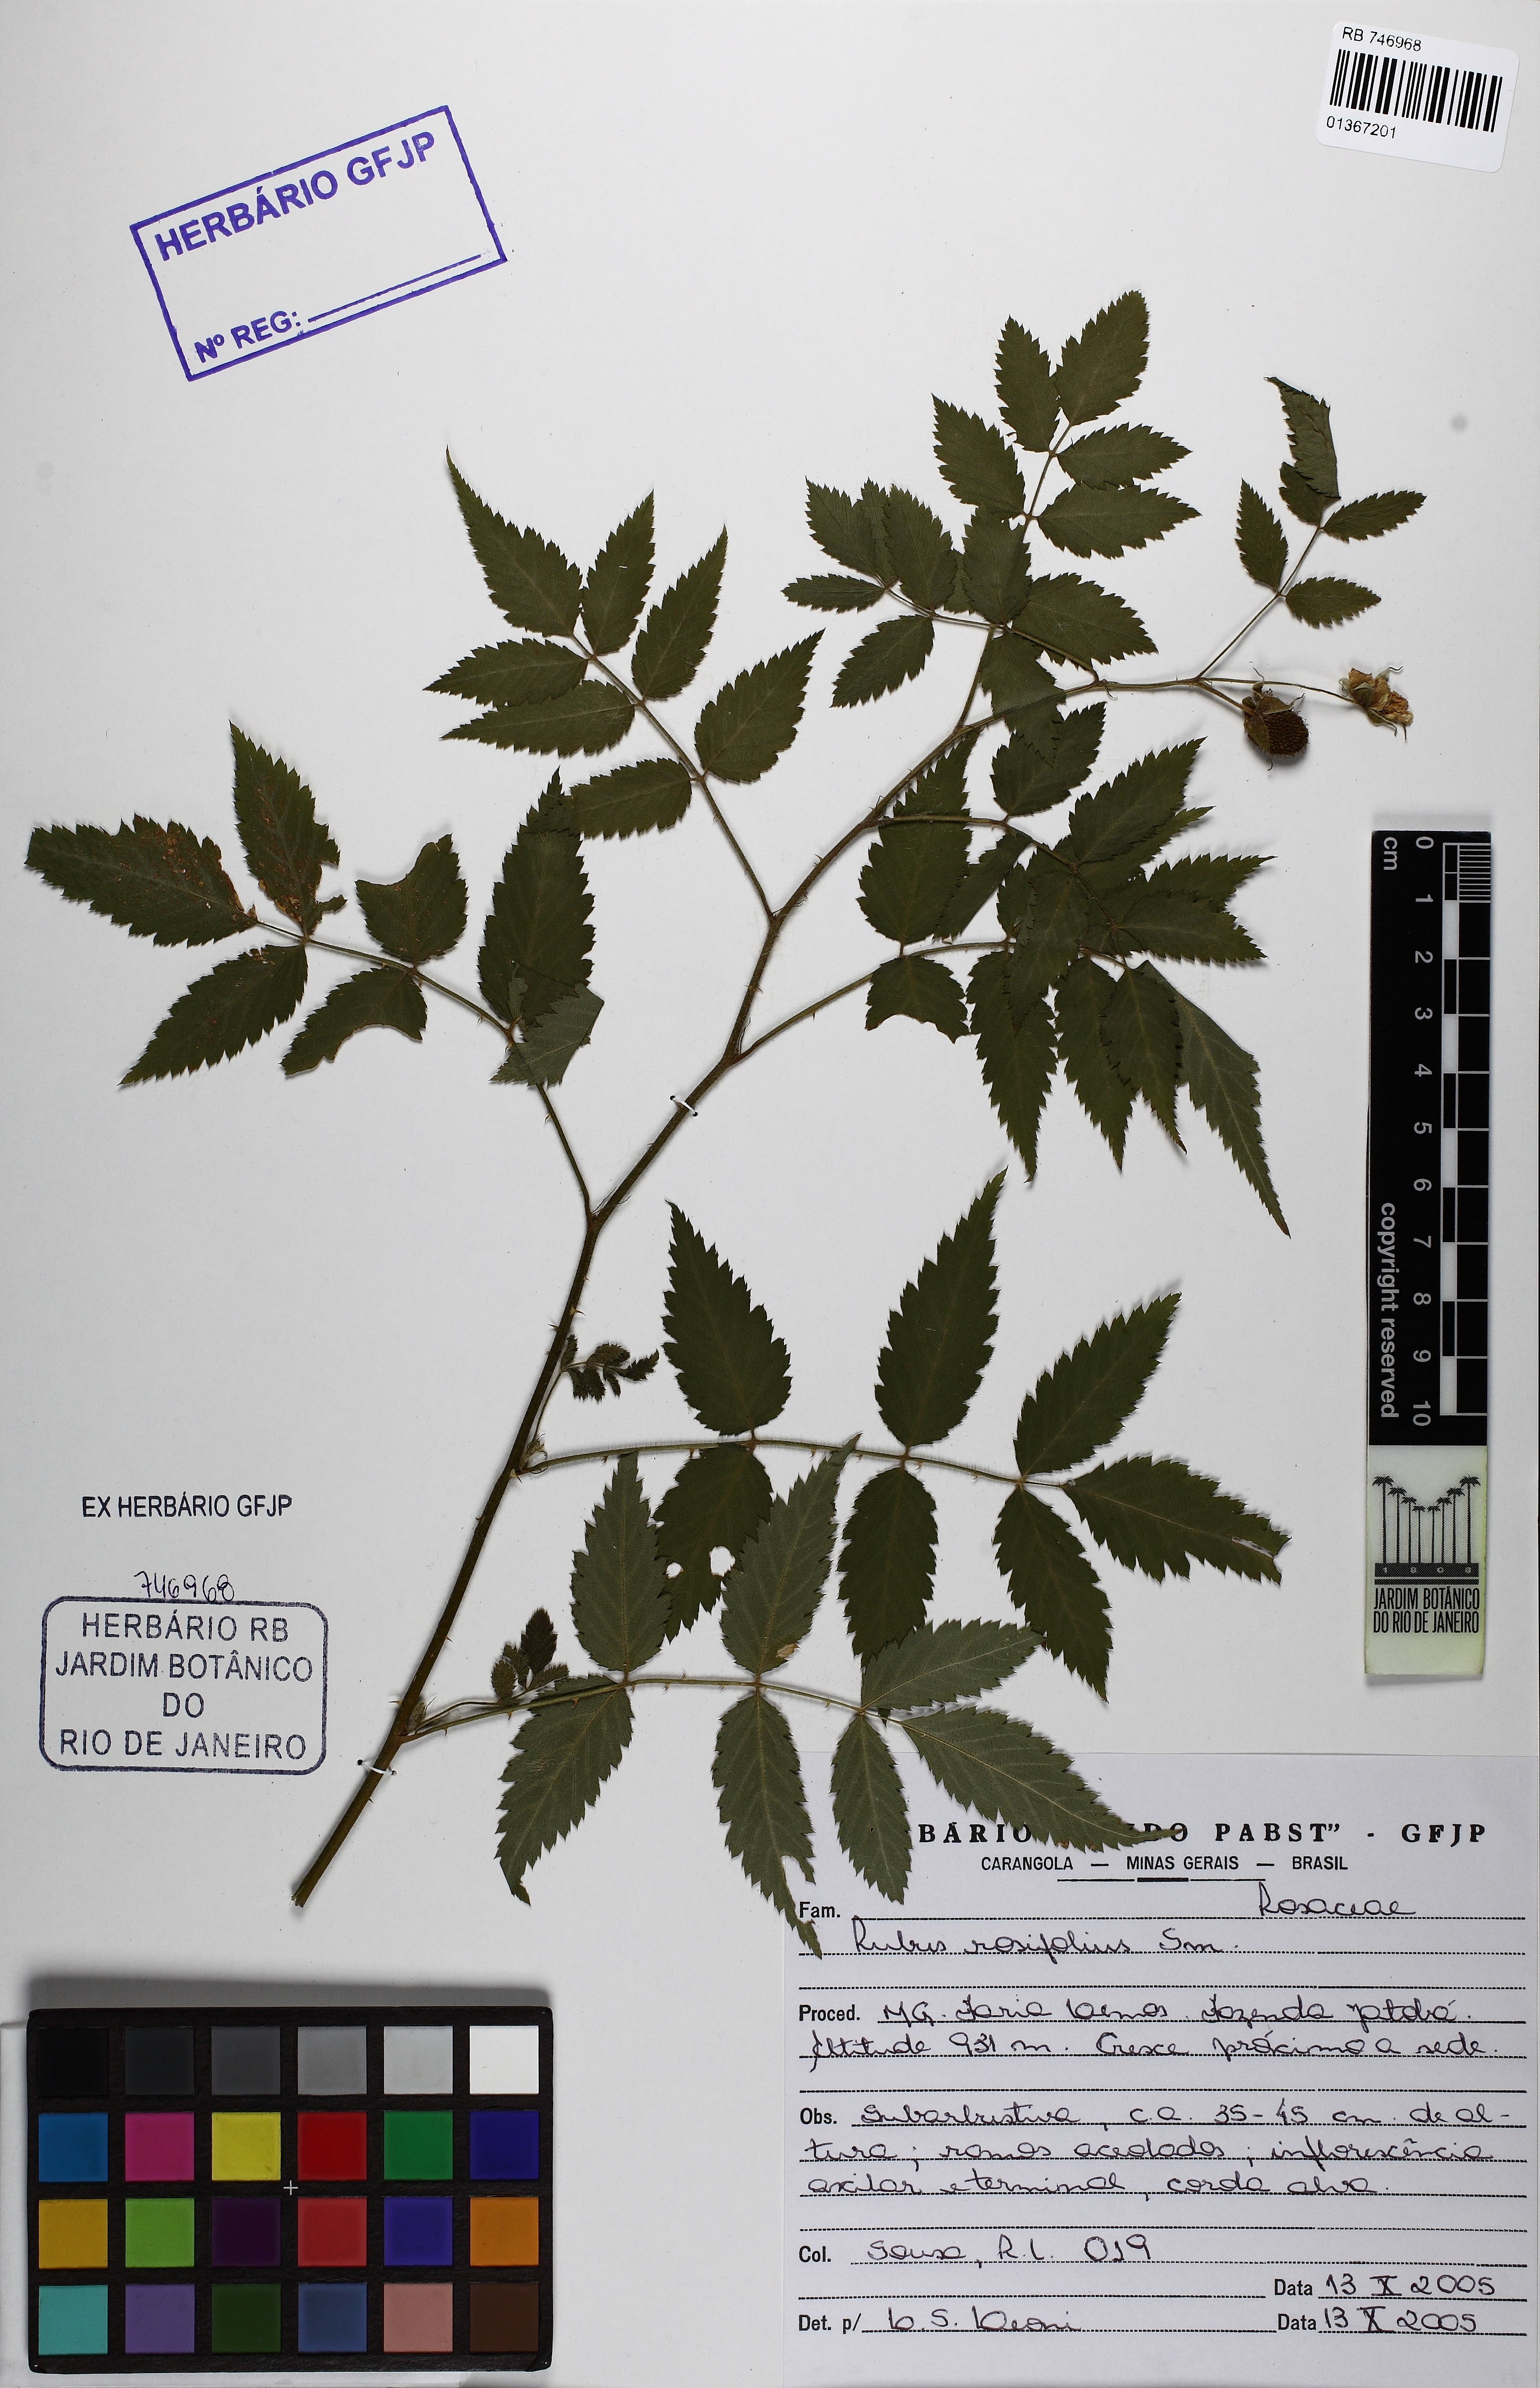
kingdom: Plantae
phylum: Tracheophyta
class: Magnoliopsida
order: Rosales
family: Rosaceae
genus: Rubus
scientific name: Rubus rosifolius
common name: Roseleaf raspberry
